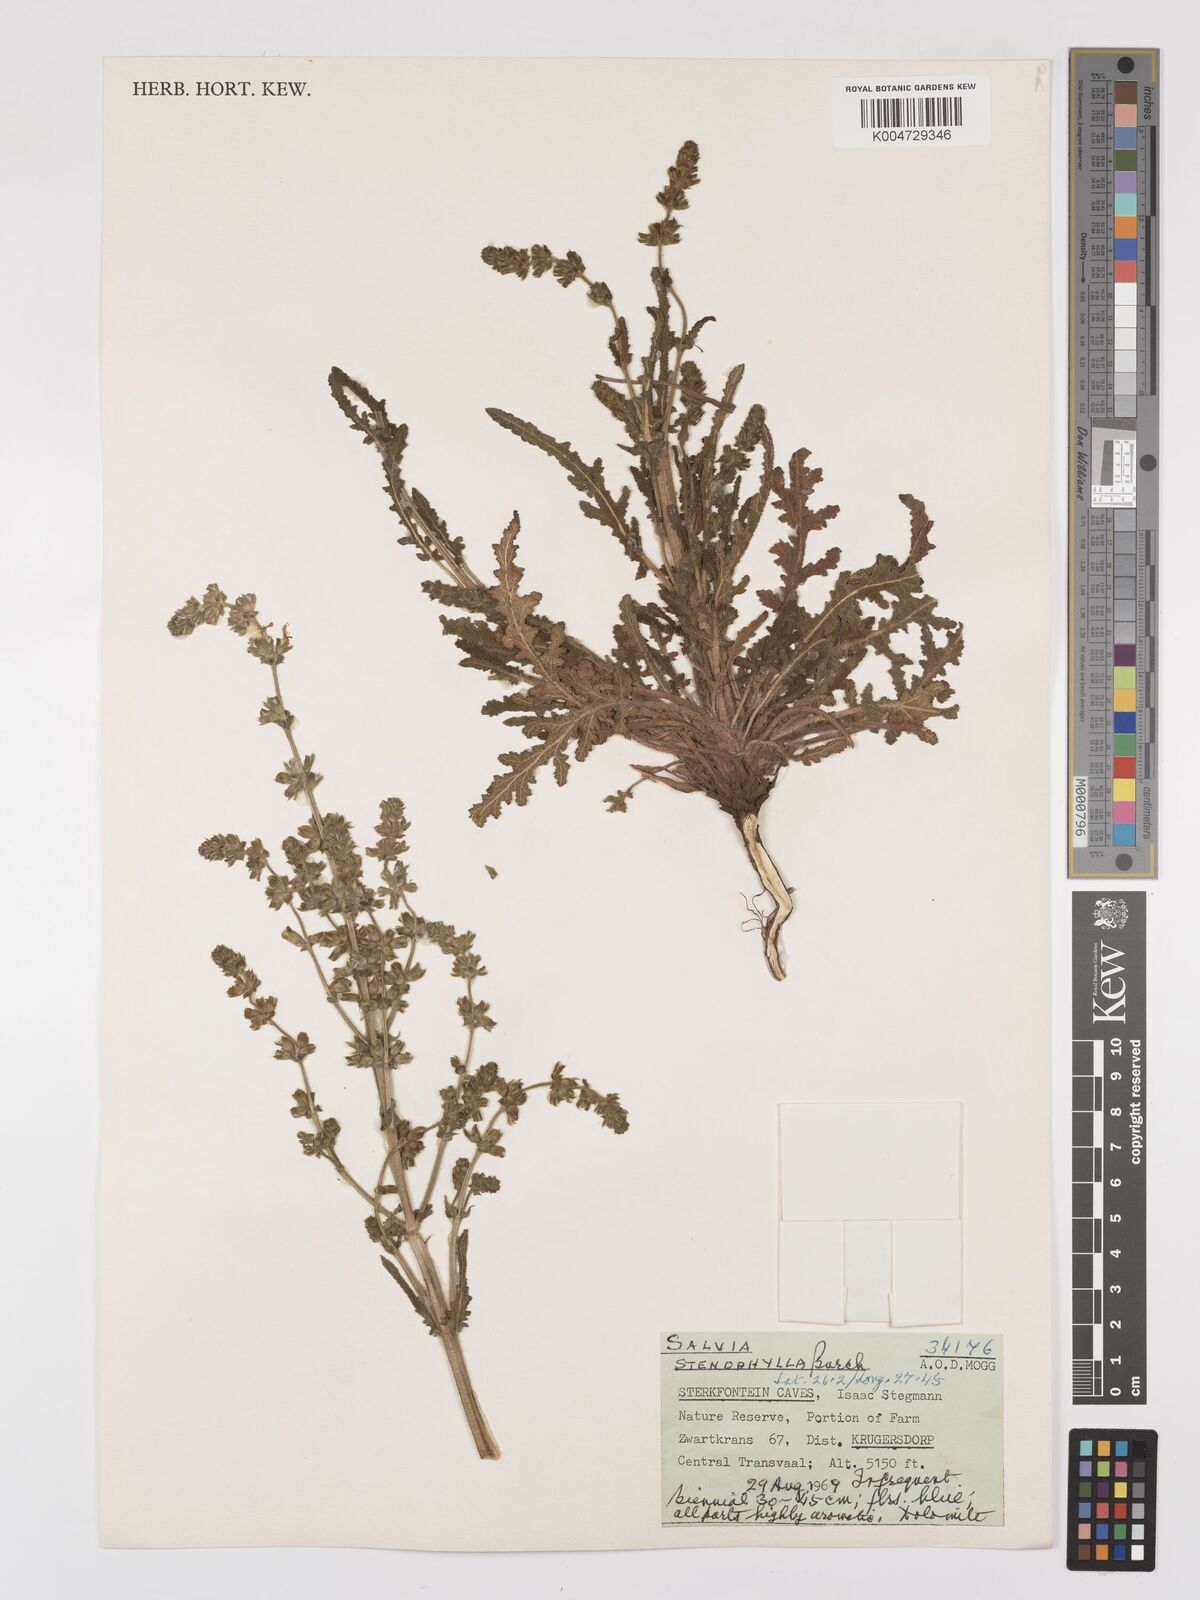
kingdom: Plantae
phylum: Tracheophyta
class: Magnoliopsida
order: Lamiales
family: Lamiaceae
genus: Salvia
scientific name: Salvia stenophylla
